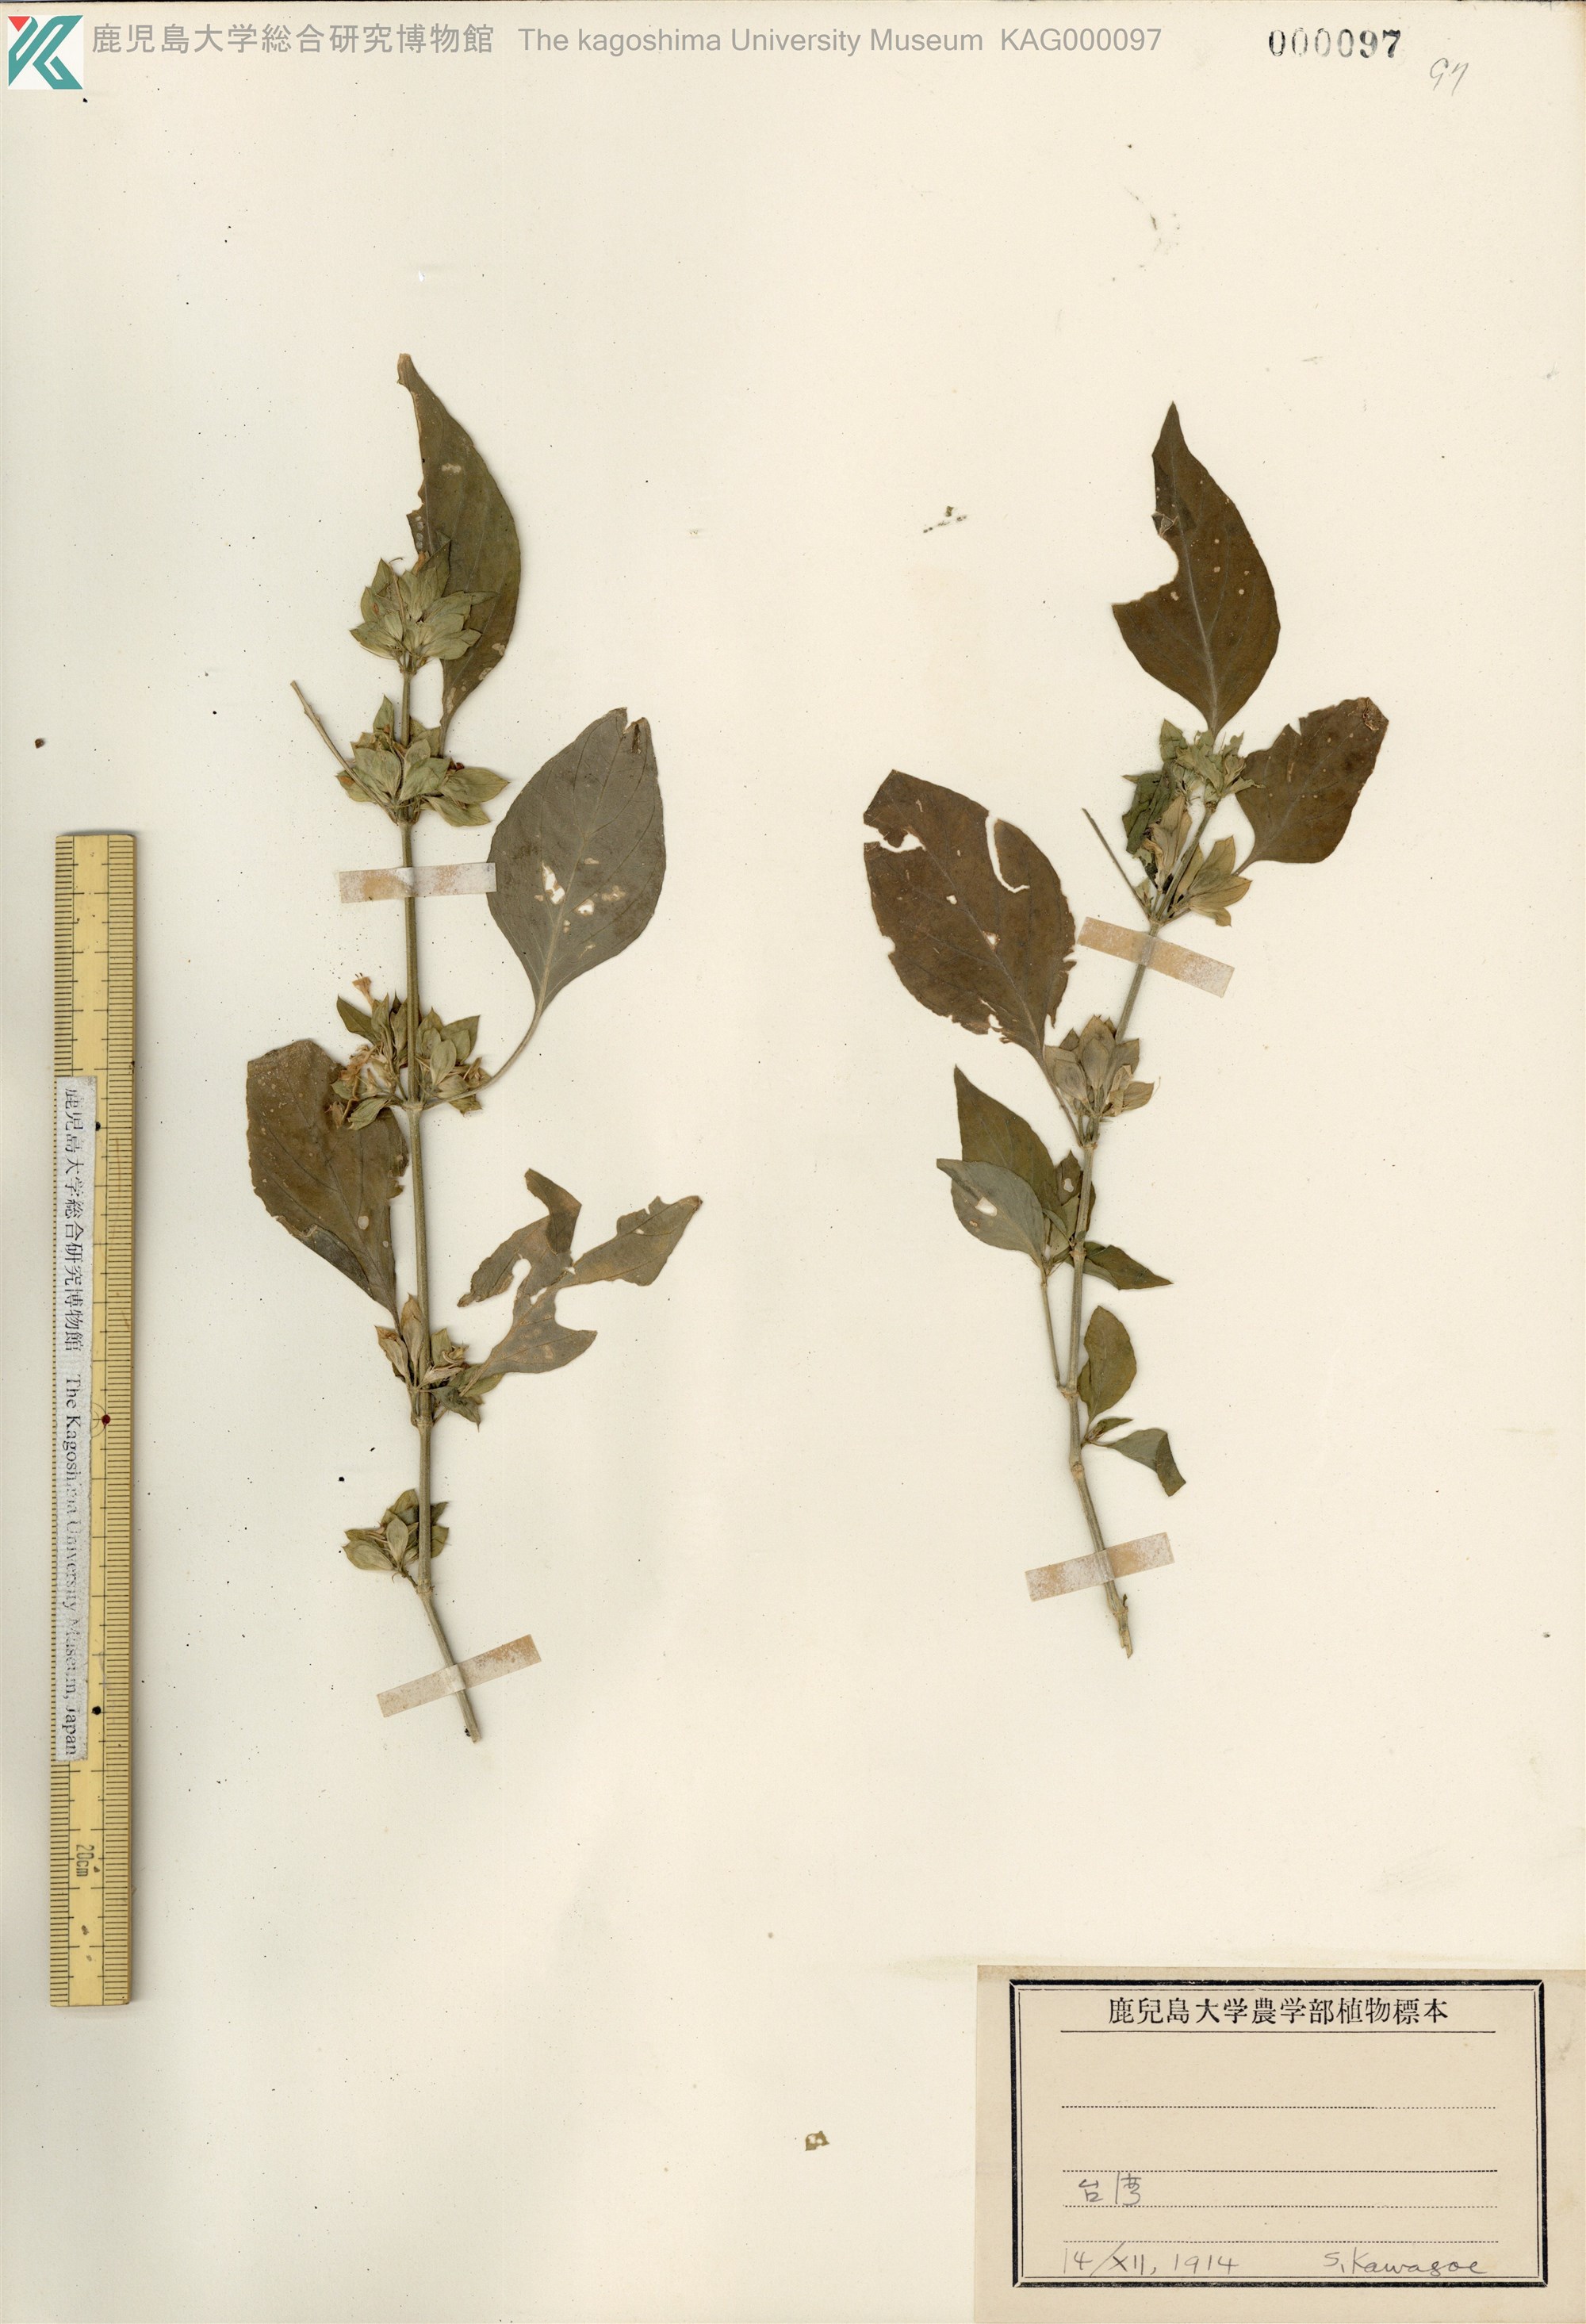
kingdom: Plantae
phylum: Tracheophyta
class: Magnoliopsida
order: Lamiales
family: Acanthaceae
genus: Dicliptera
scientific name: Dicliptera chinensis
